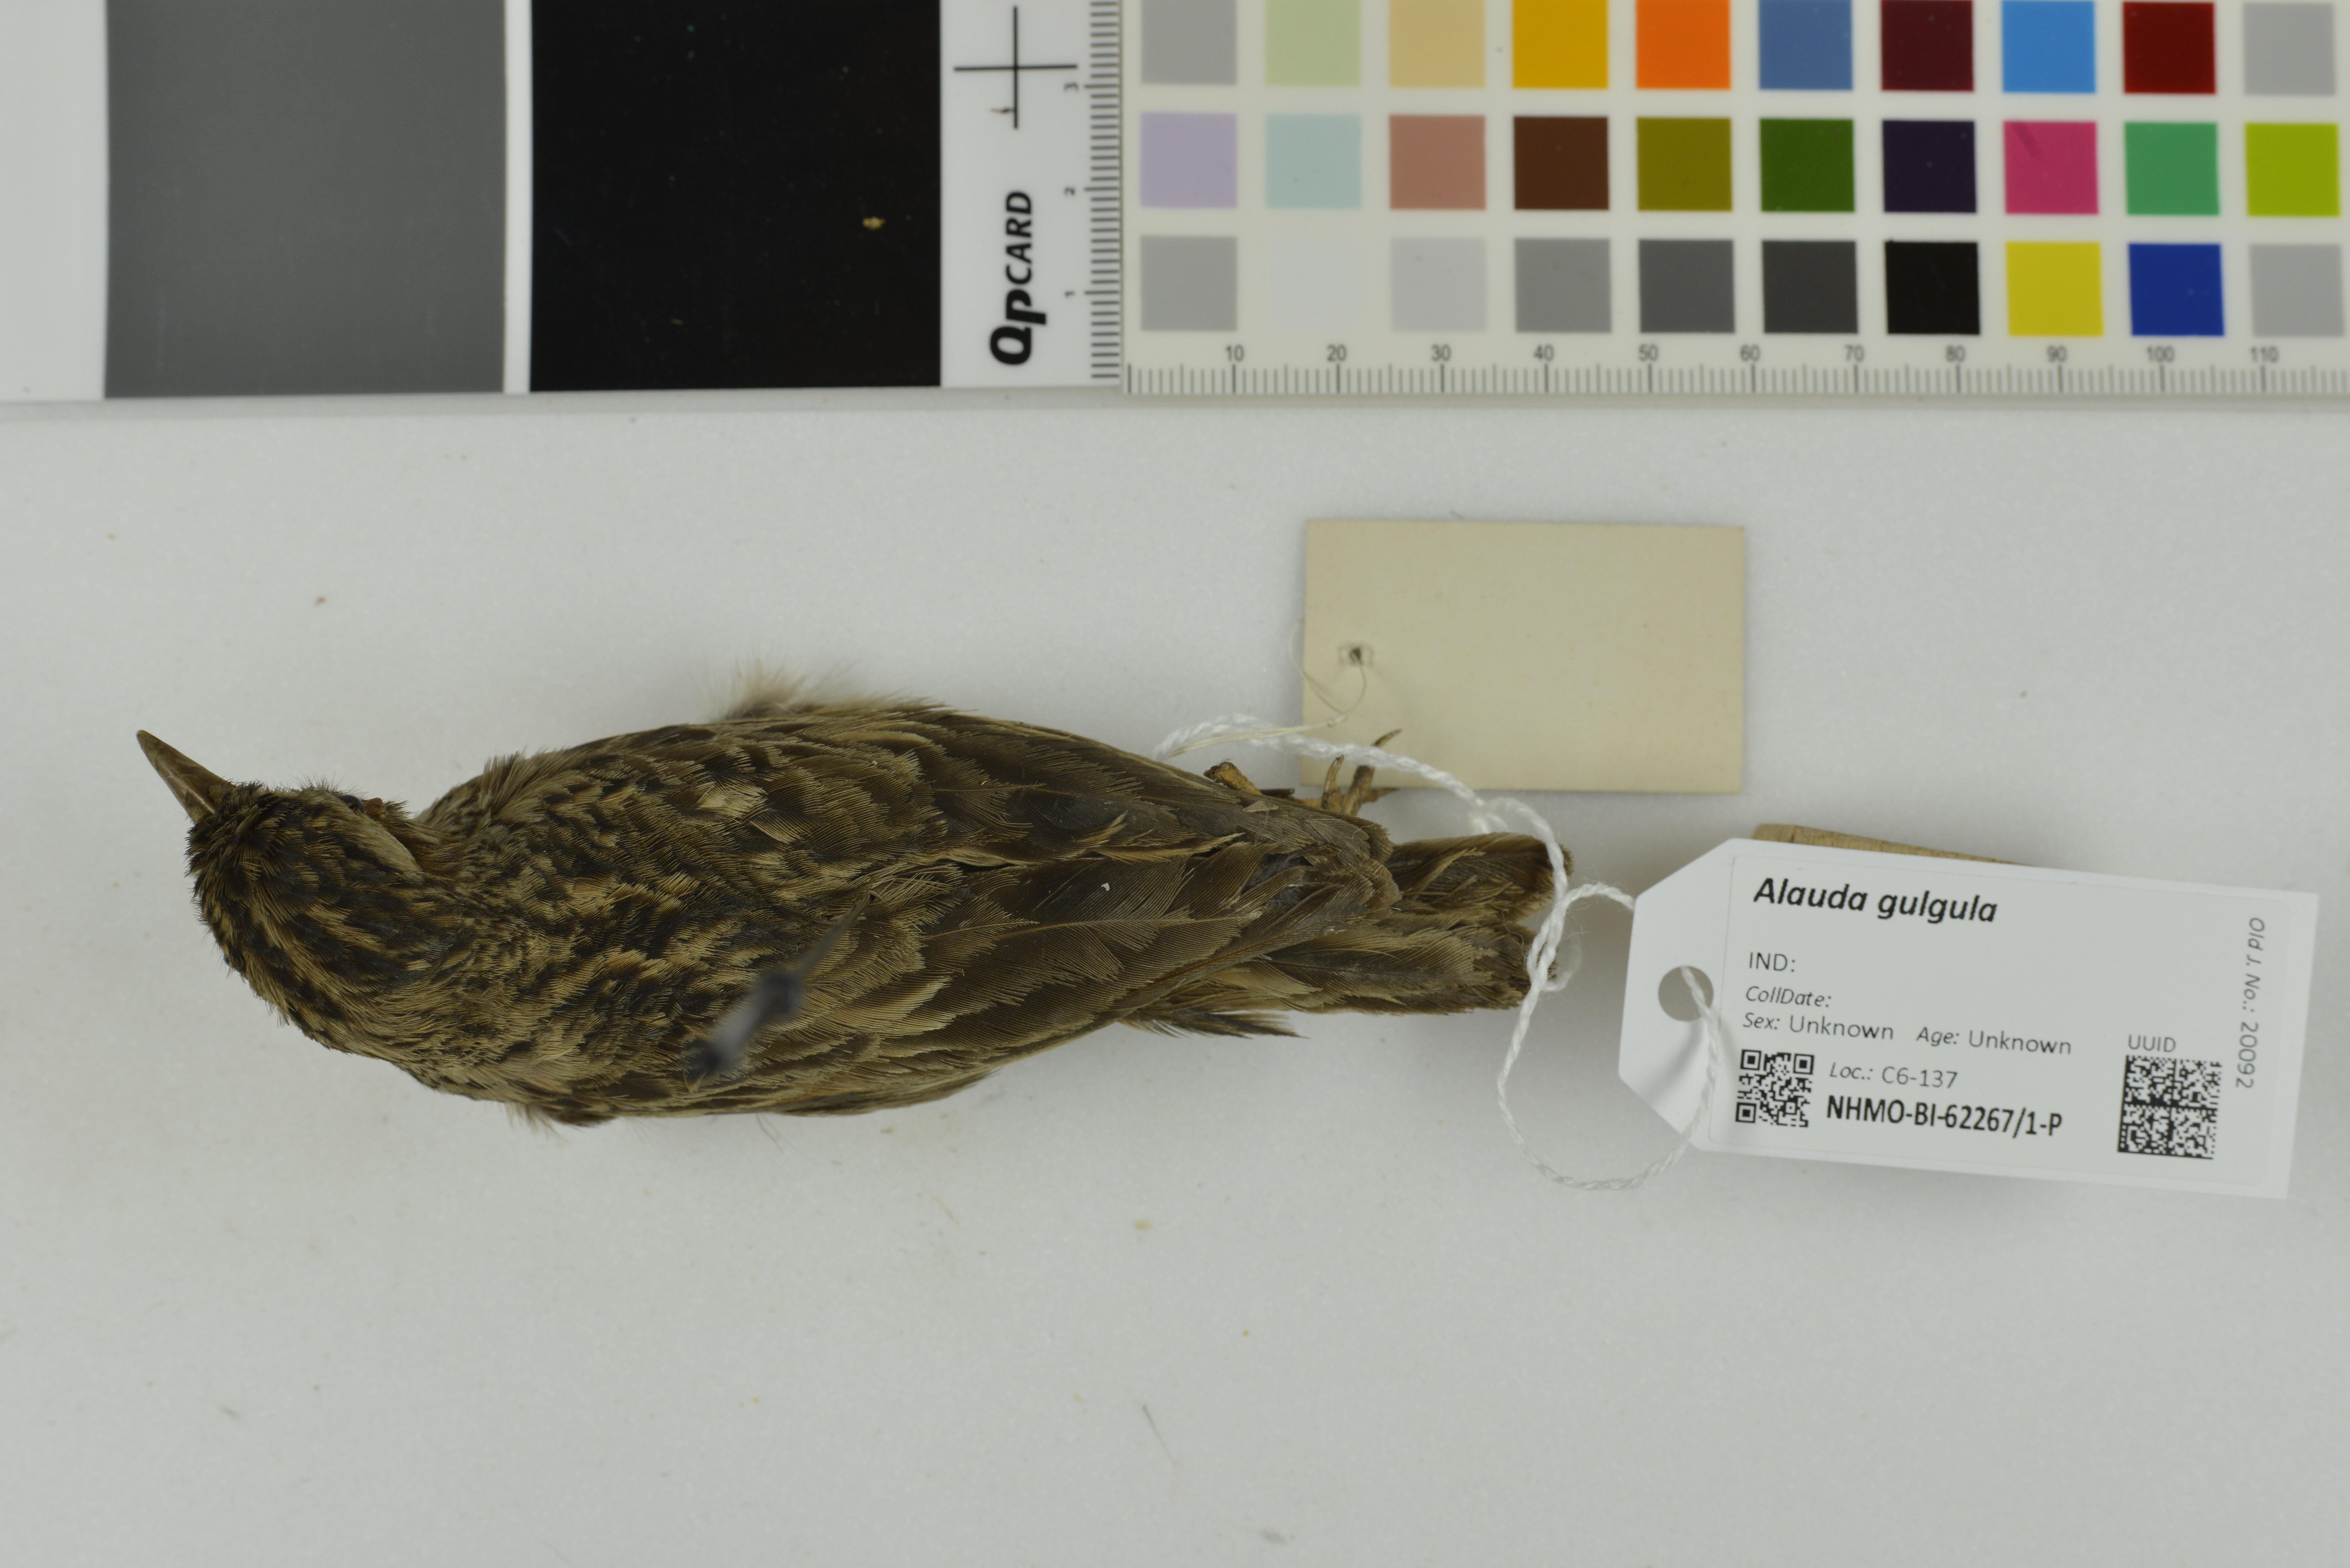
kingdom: Animalia
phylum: Chordata
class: Aves
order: Passeriformes
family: Alaudidae
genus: Alauda
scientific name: Alauda gulgula
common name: Oriental skylark
